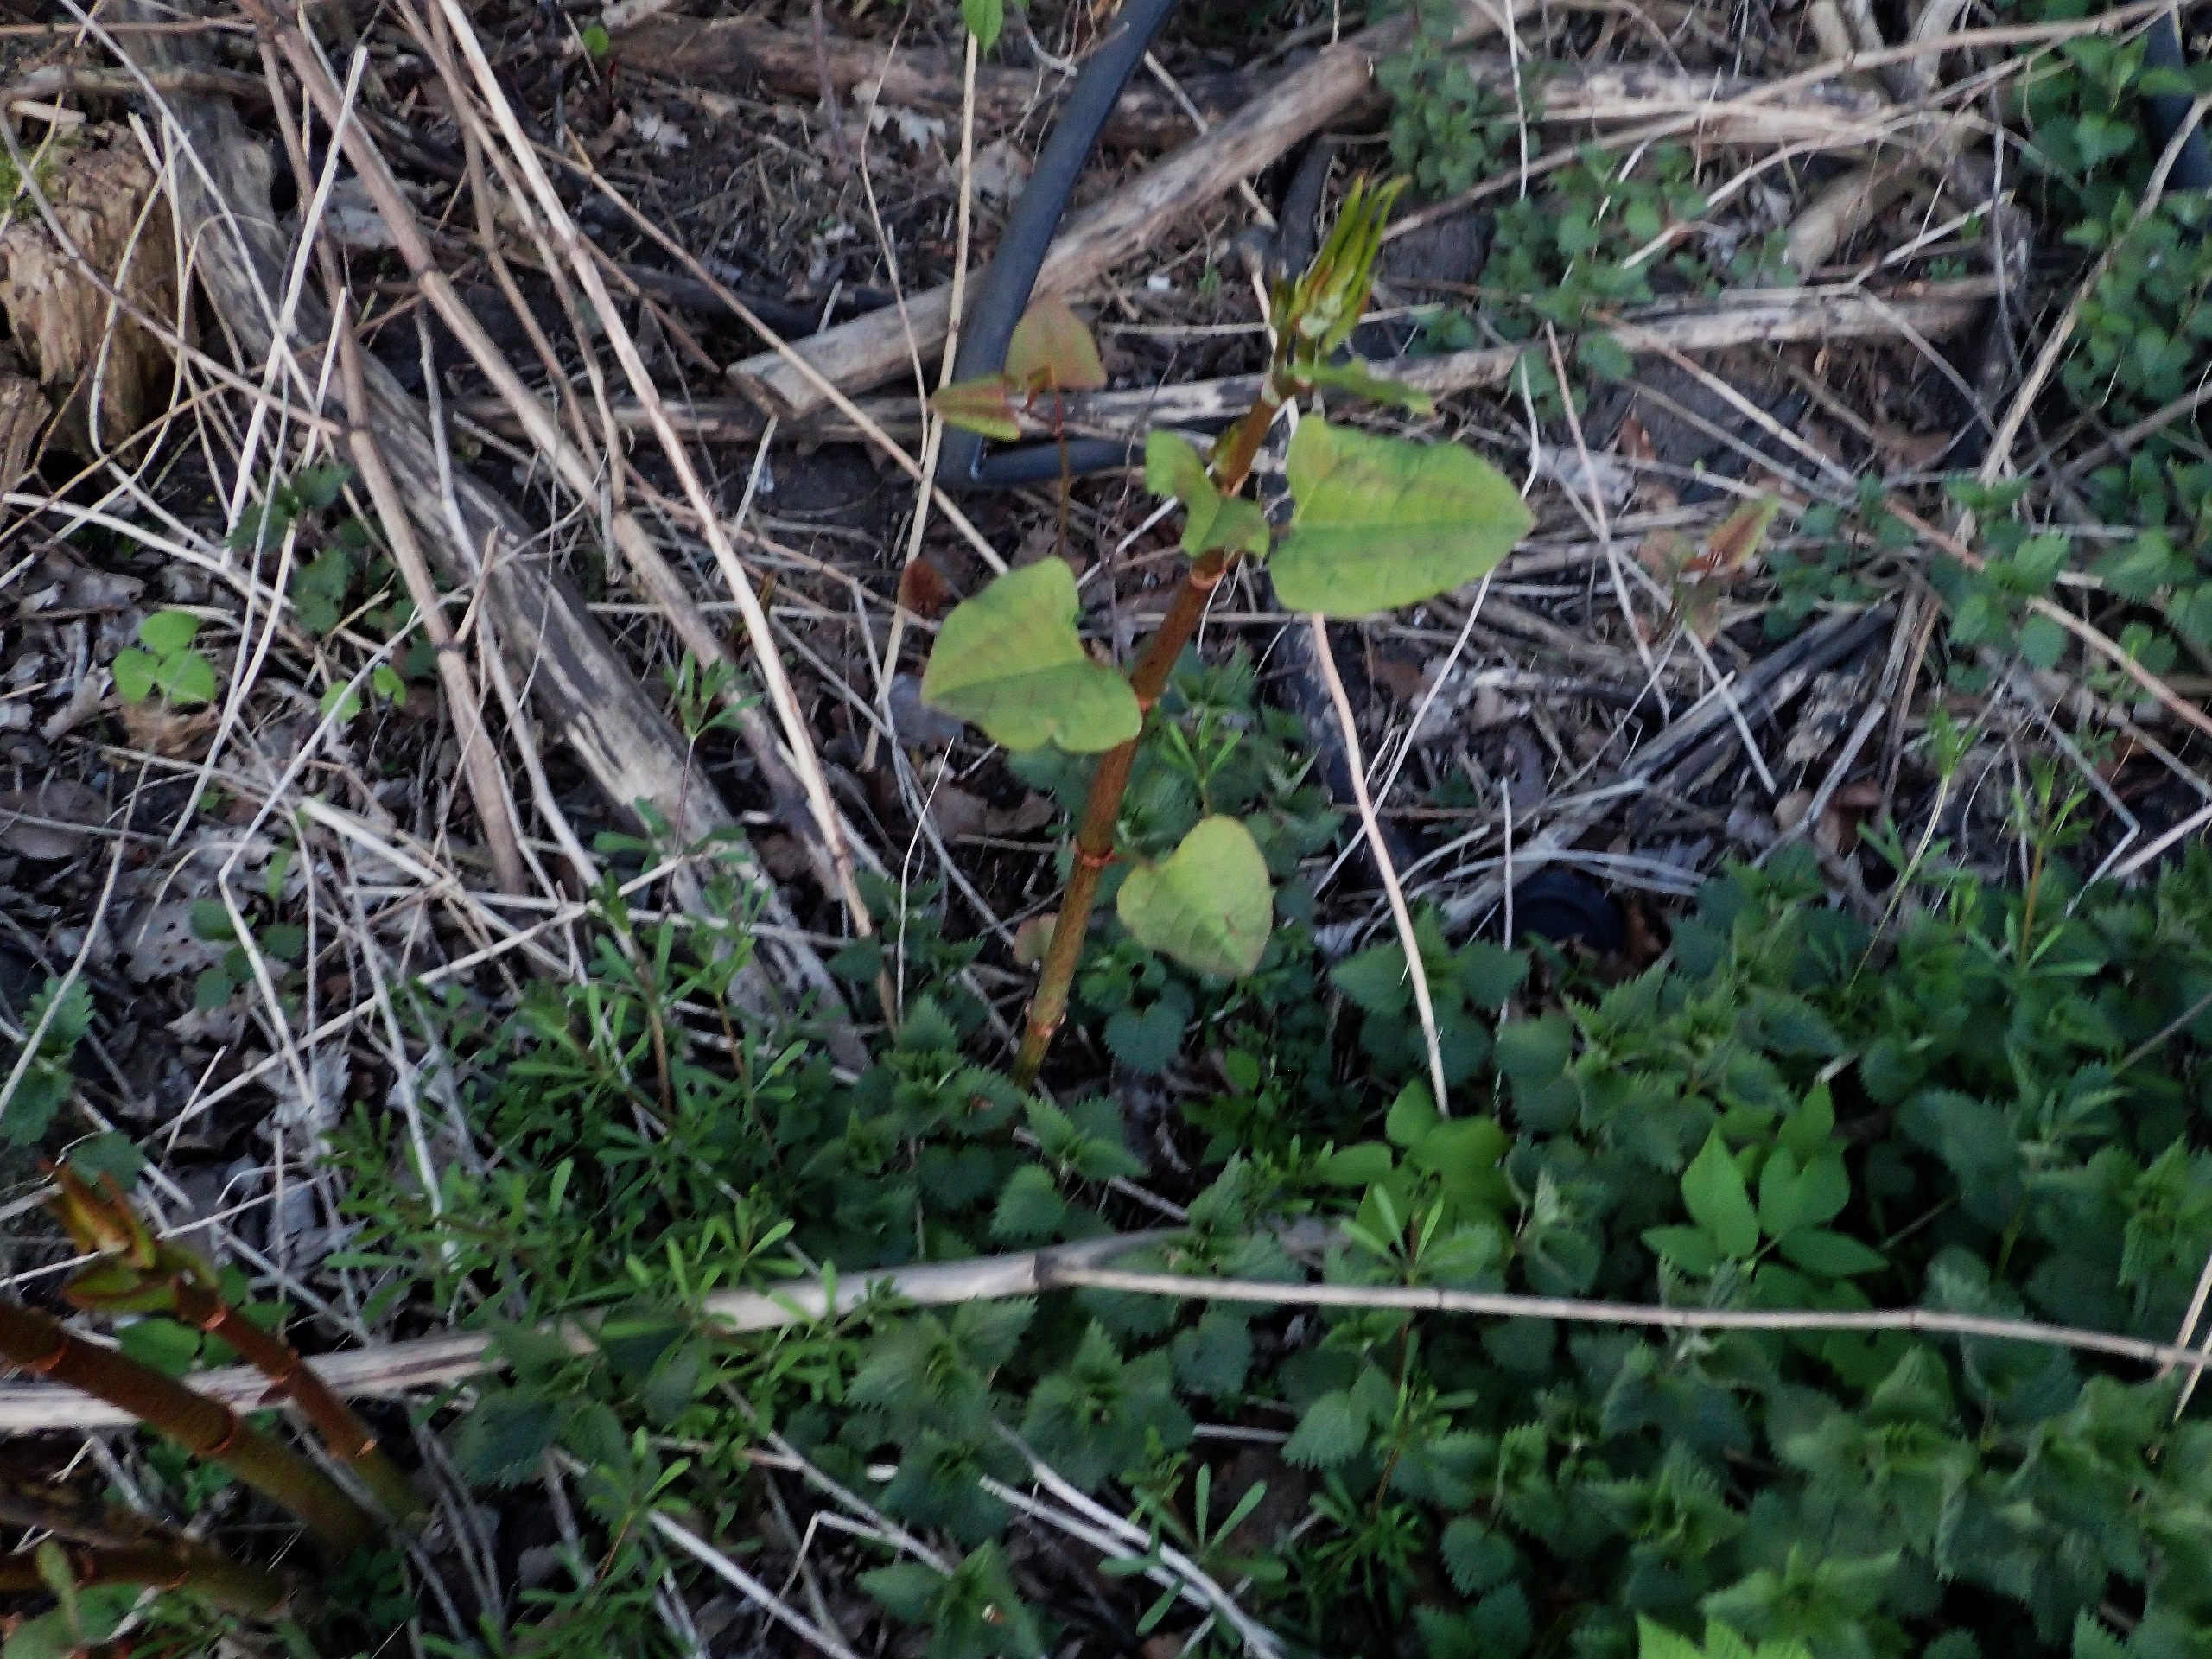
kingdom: Plantae
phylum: Tracheophyta
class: Magnoliopsida
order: Caryophyllales
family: Polygonaceae
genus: Reynoutria
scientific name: Reynoutria
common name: Pileurt (Reynoutria-slægten)
